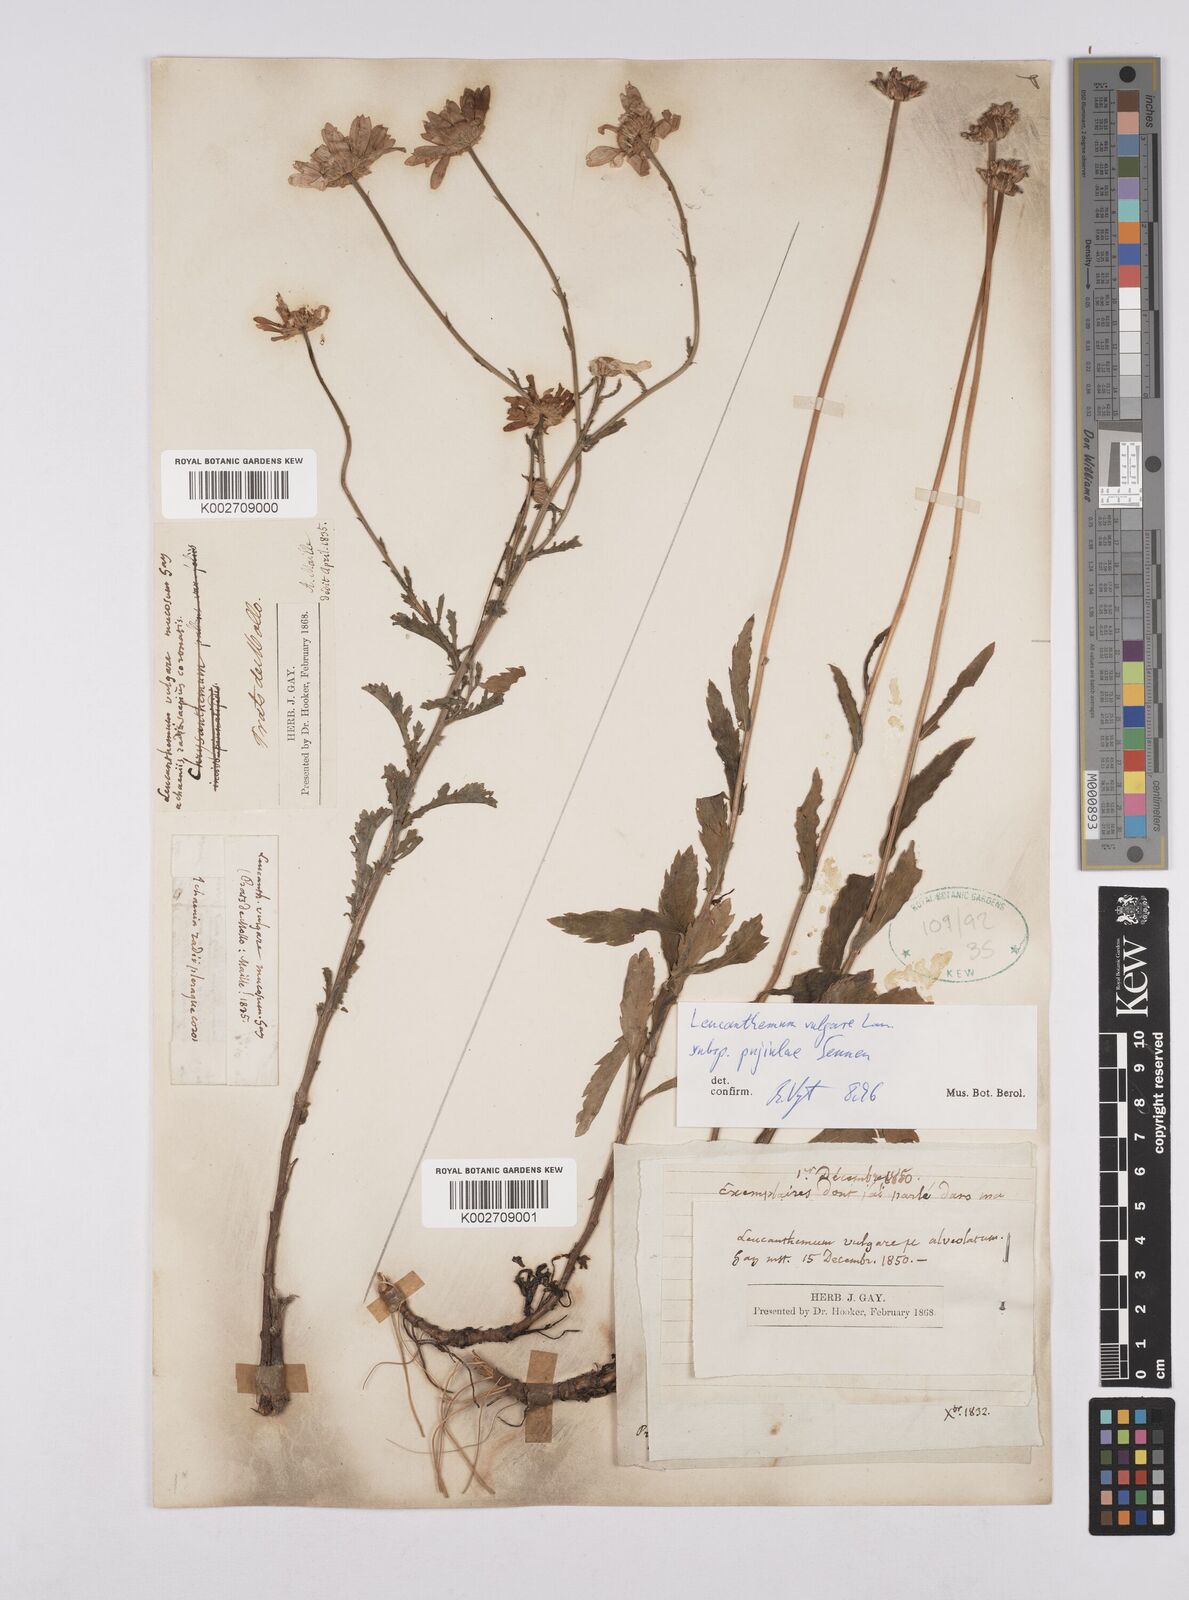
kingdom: Plantae
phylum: Tracheophyta
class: Magnoliopsida
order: Asterales
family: Asteraceae
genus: Leucanthemum
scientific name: Leucanthemum vulgare
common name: Oxeye daisy
